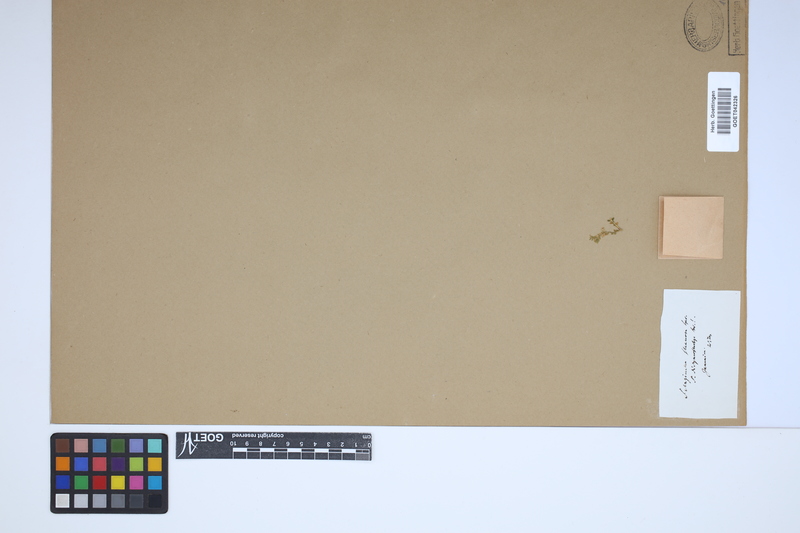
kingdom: Plantae
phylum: Tracheophyta
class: Lycopodiopsida
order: Selaginellales
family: Selaginellaceae
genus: Selaginella
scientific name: Selaginella flexuosa
